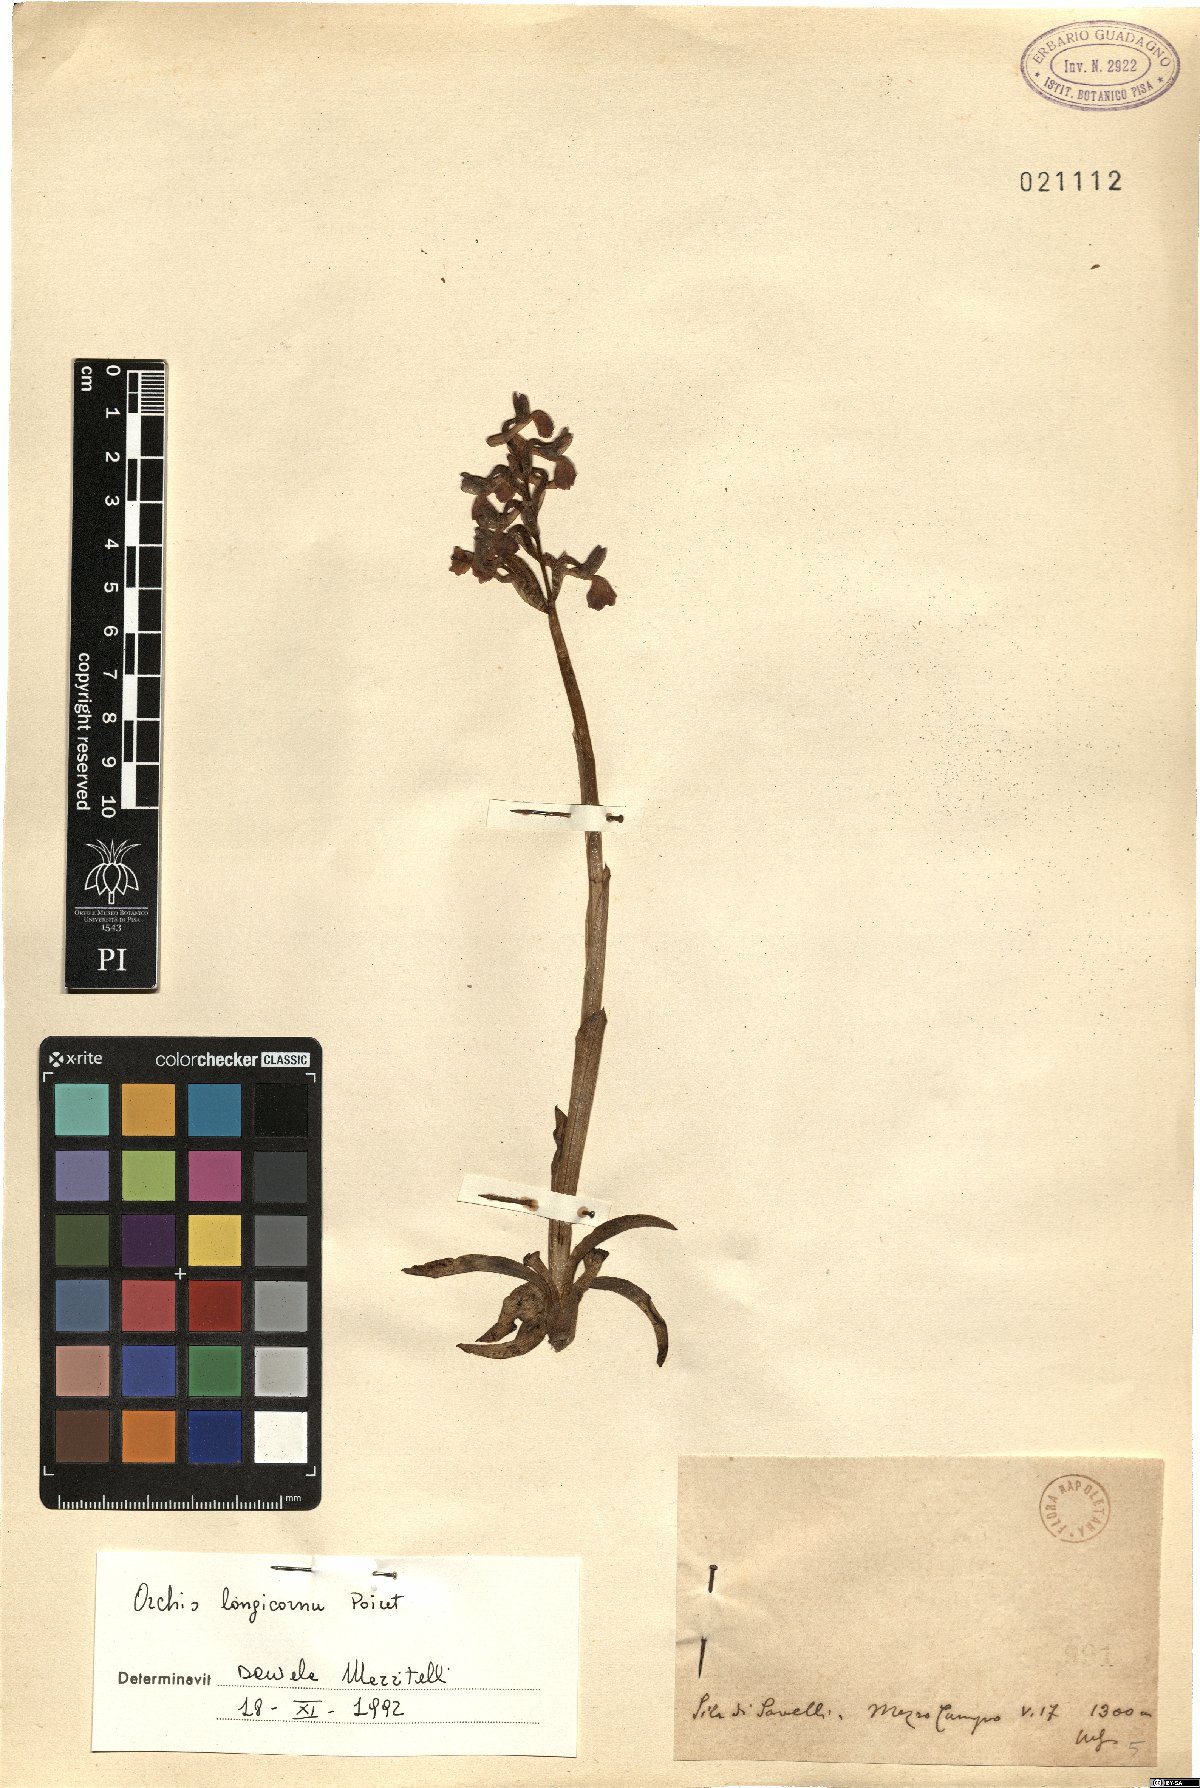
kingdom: Plantae
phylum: Tracheophyta
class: Liliopsida
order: Asparagales
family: Orchidaceae
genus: Anacamptis
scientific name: Anacamptis morio
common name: Green-winged orchid
